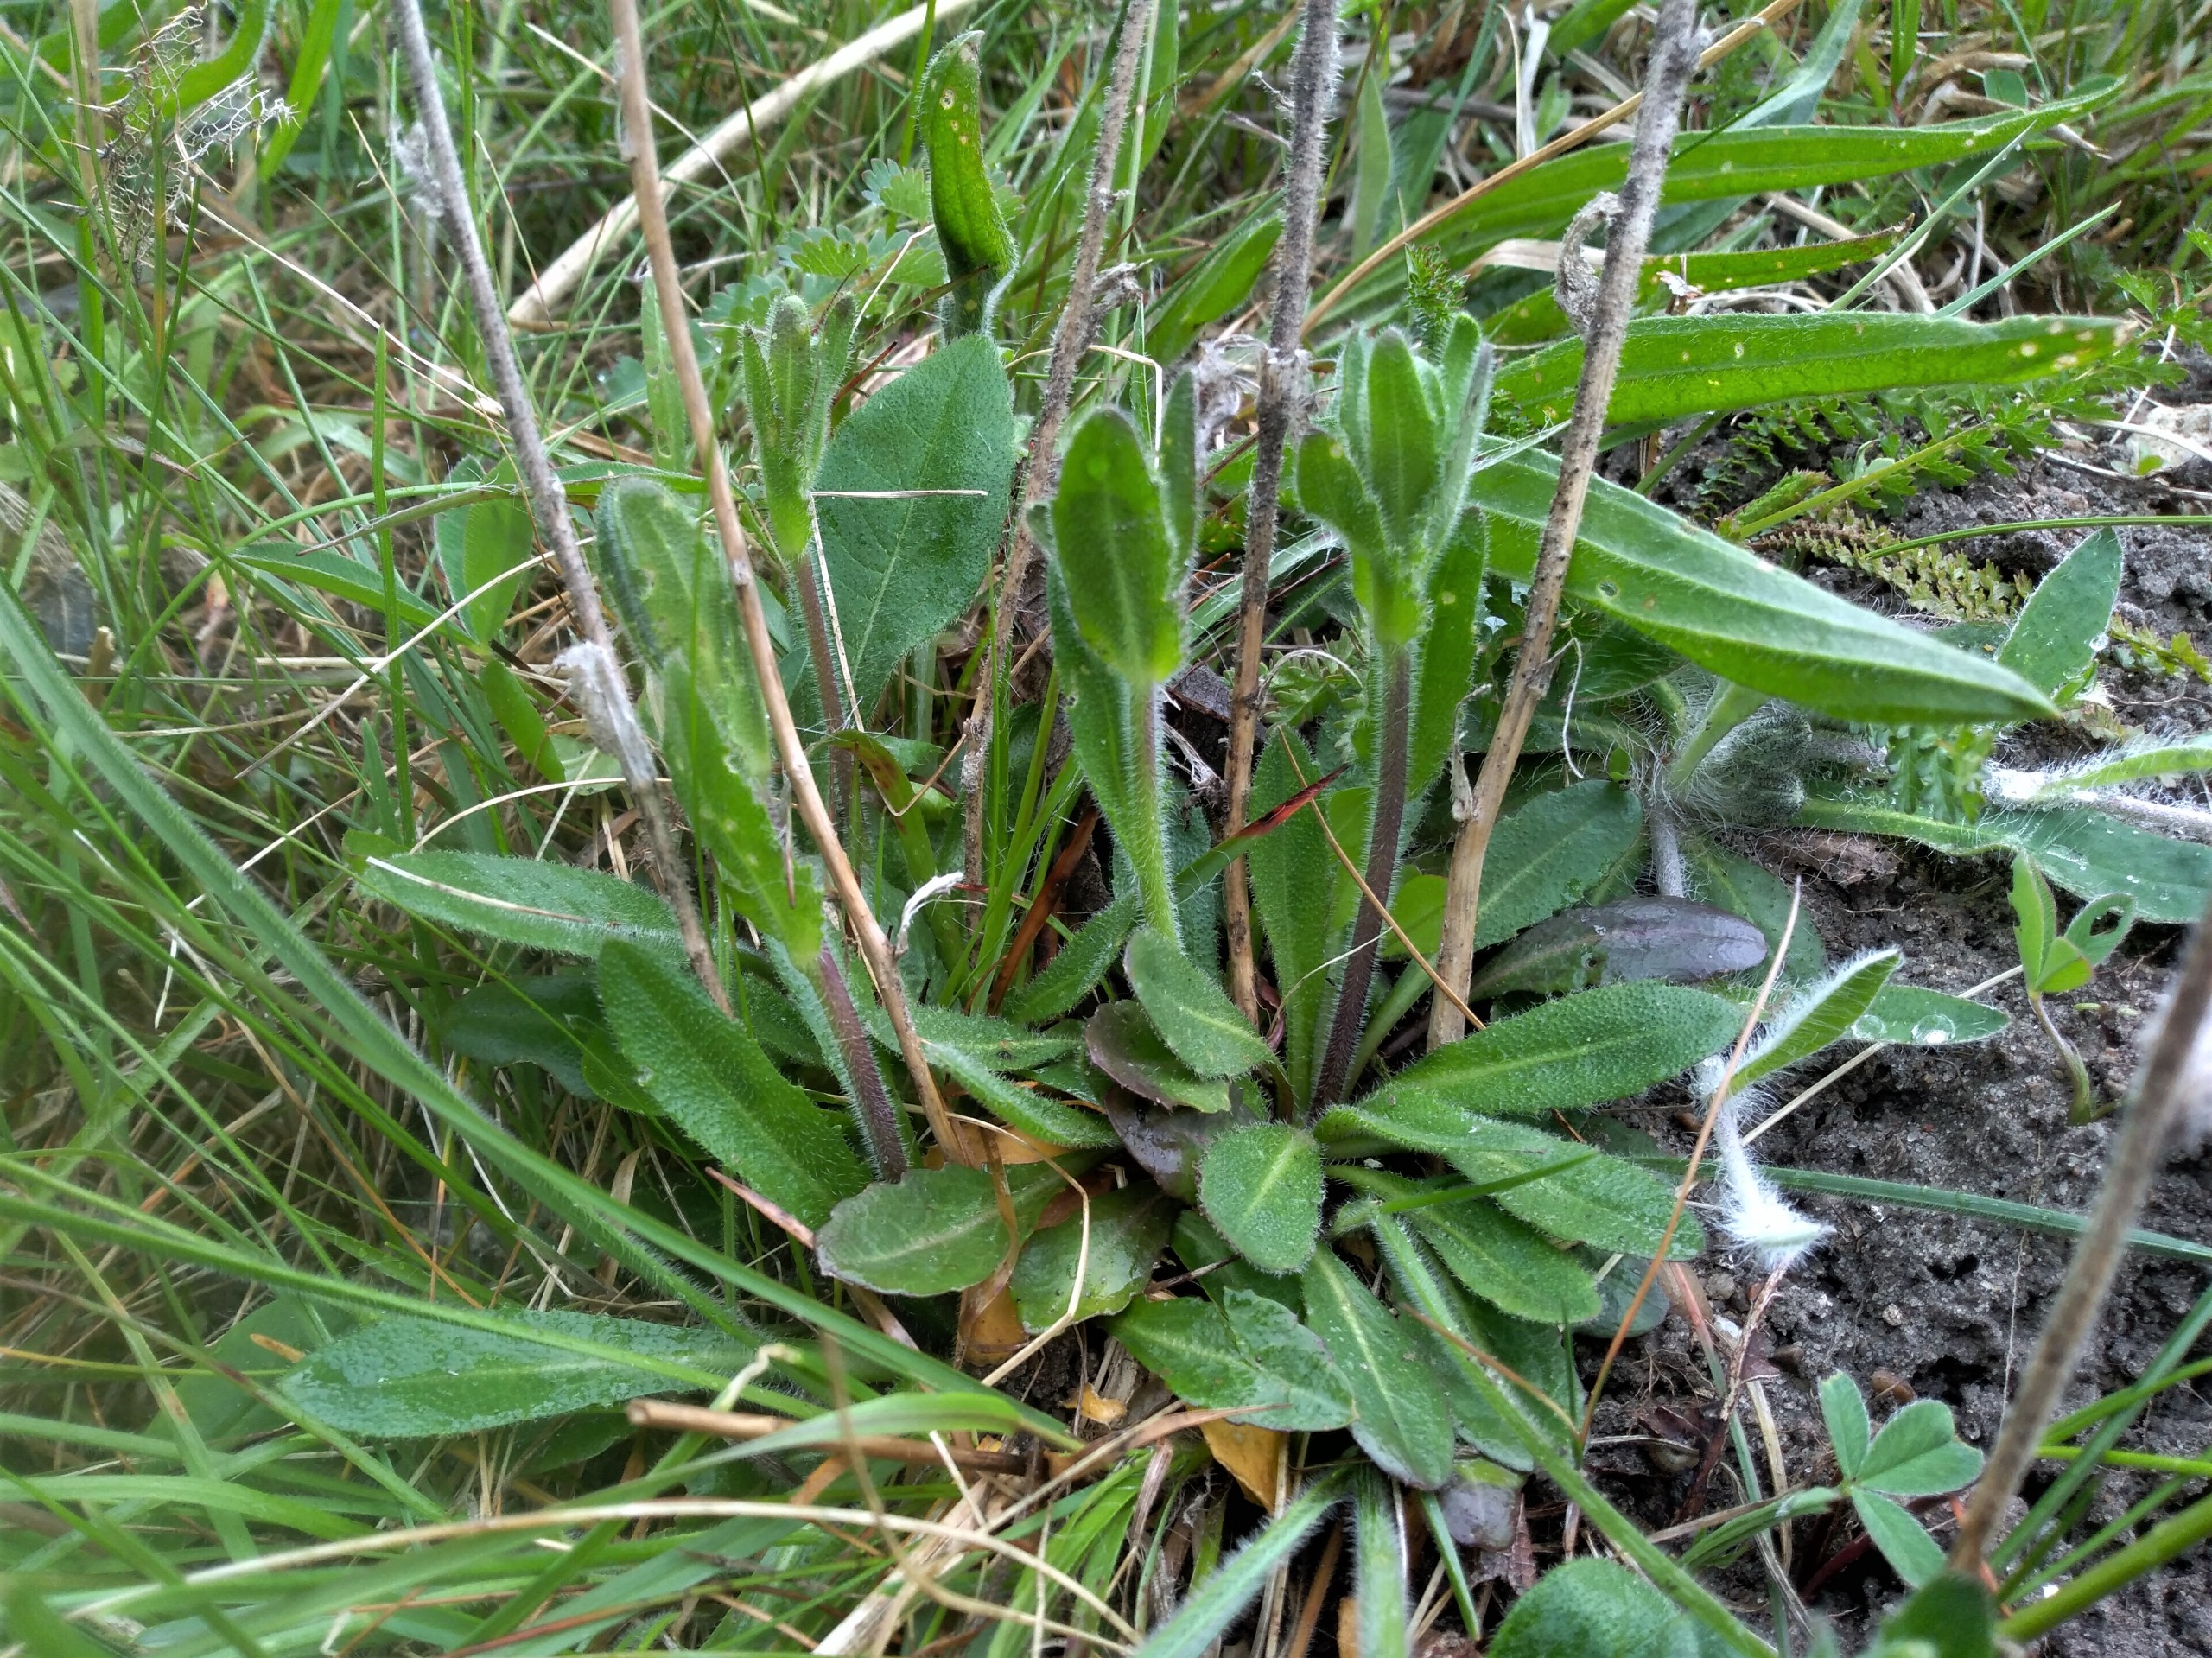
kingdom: Plantae
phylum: Tracheophyta
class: Magnoliopsida
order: Brassicales
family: Brassicaceae
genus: Arabis
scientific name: Arabis hirsuta
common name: Stivhåret kalkkarse
